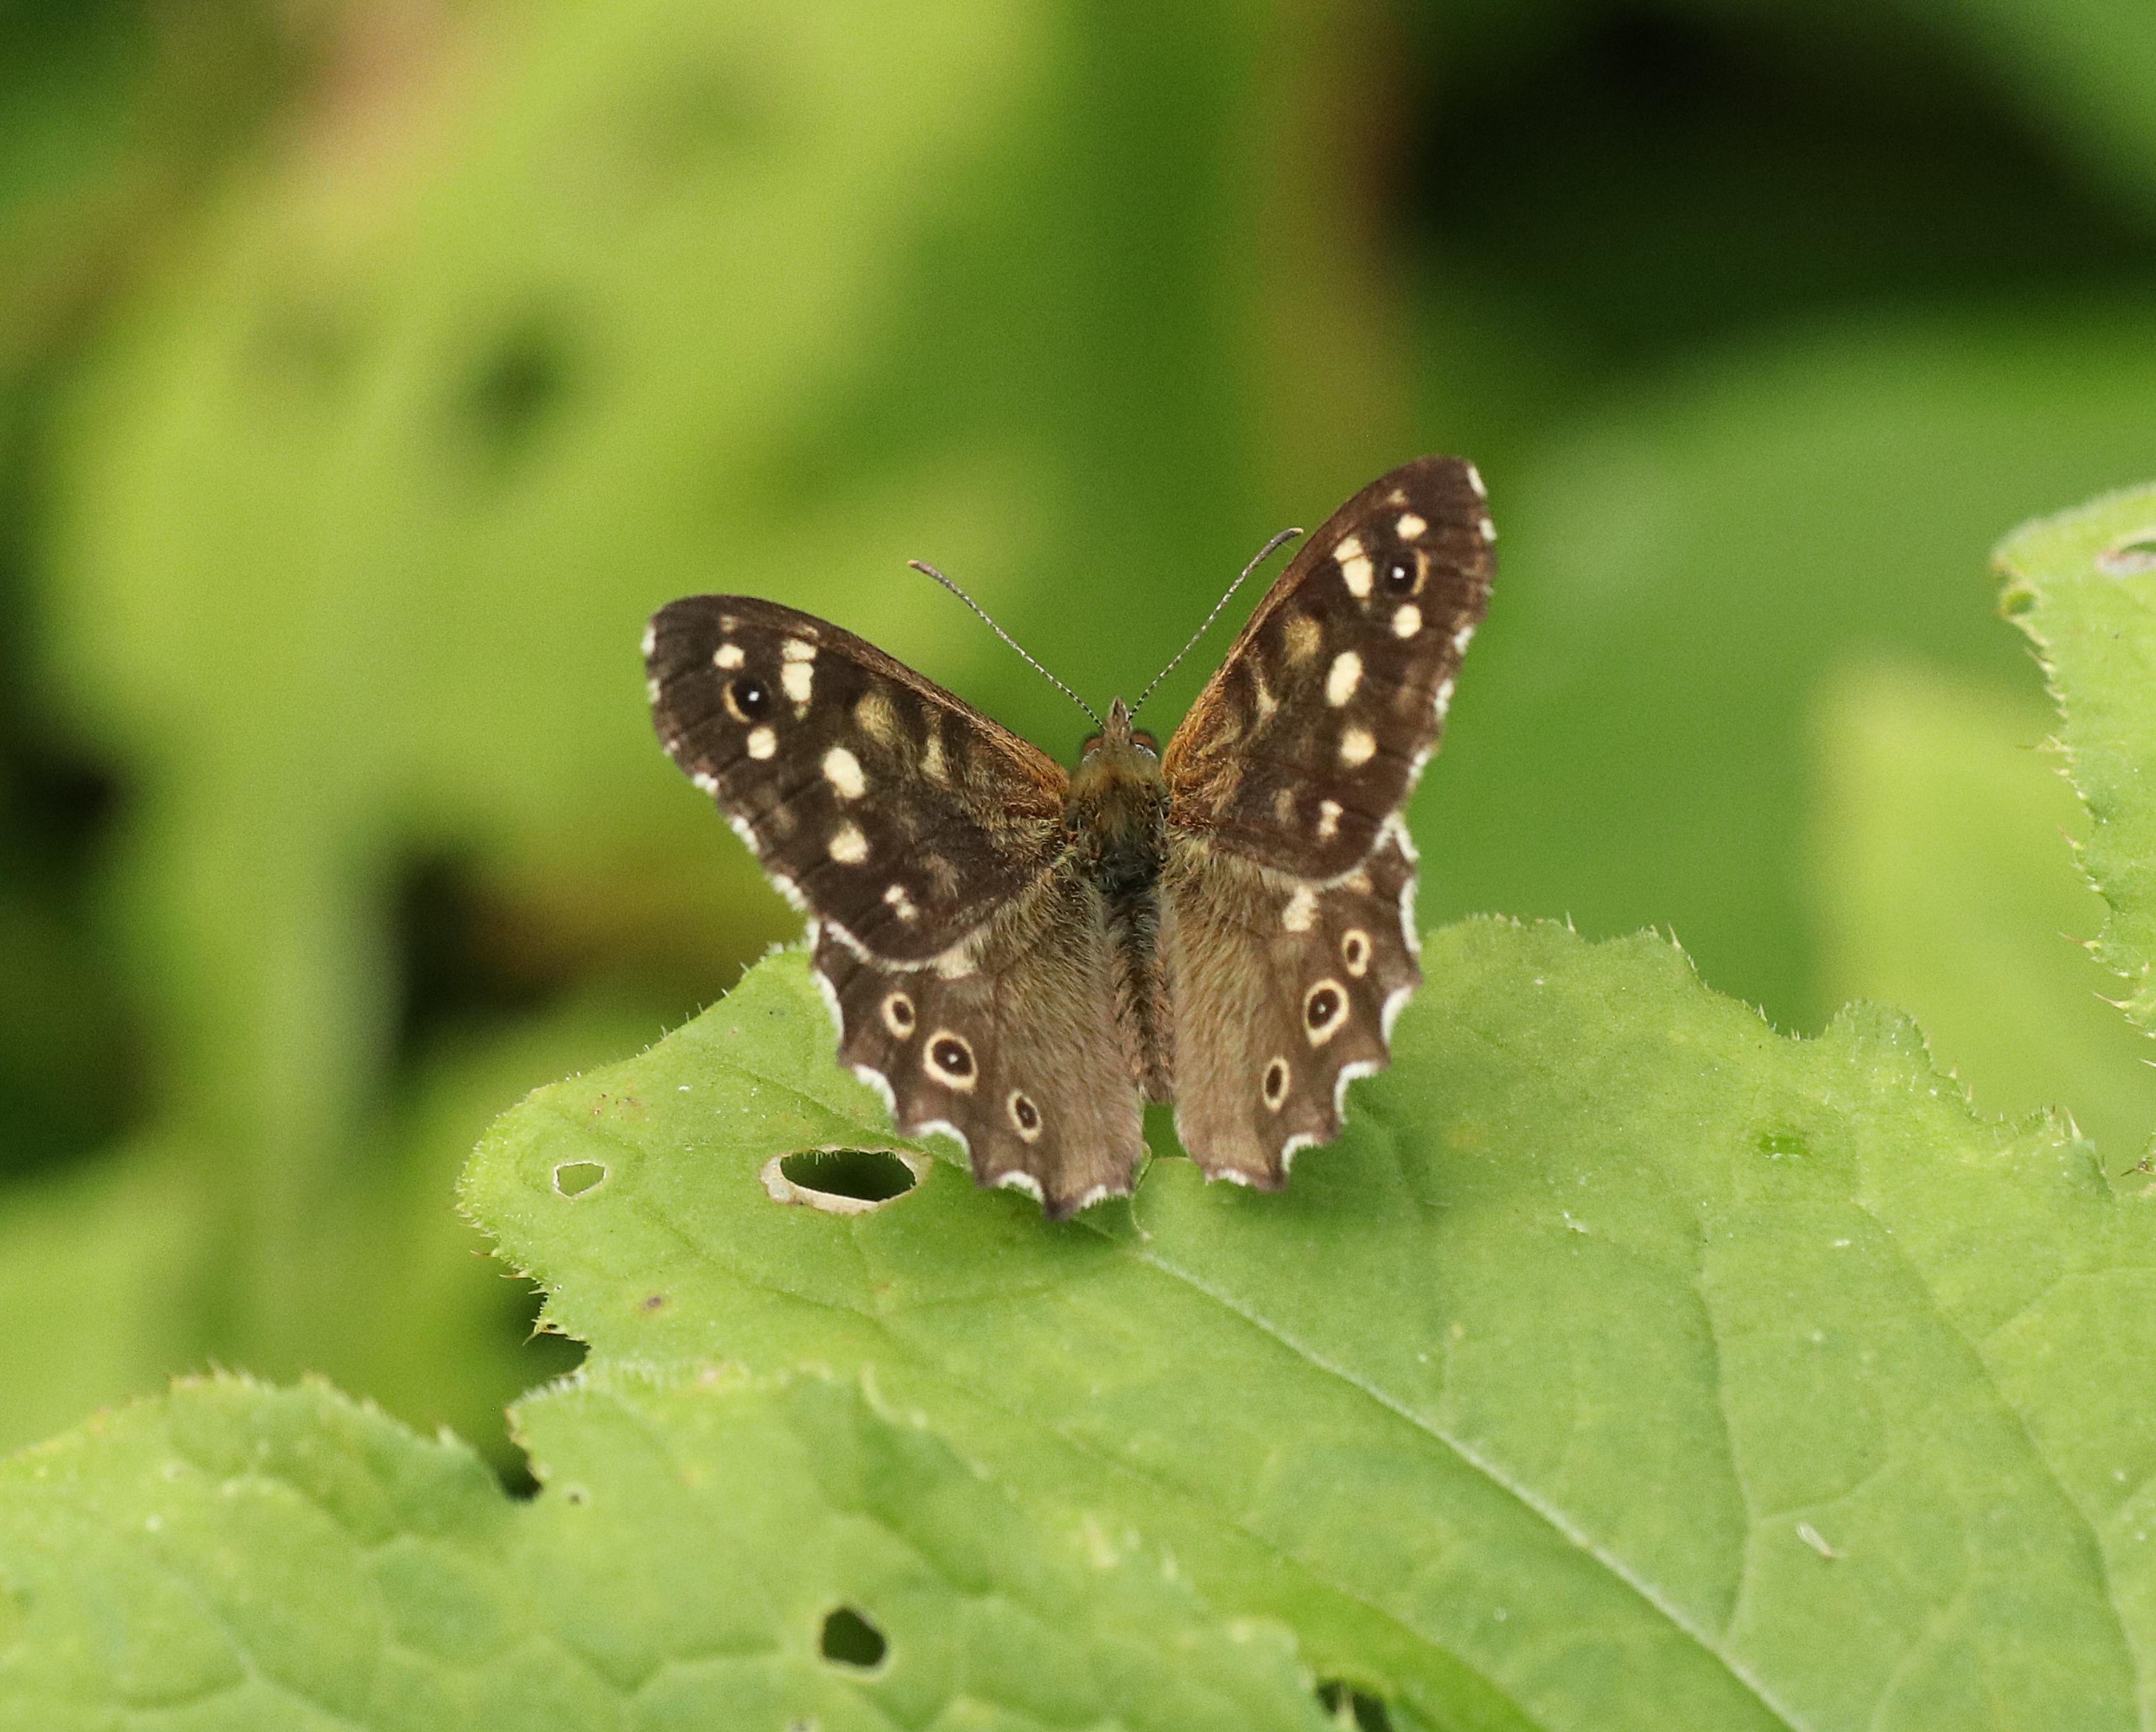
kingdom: Animalia
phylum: Arthropoda
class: Insecta
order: Lepidoptera
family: Nymphalidae
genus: Pararge
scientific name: Pararge aegeria
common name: Skovrandøje
